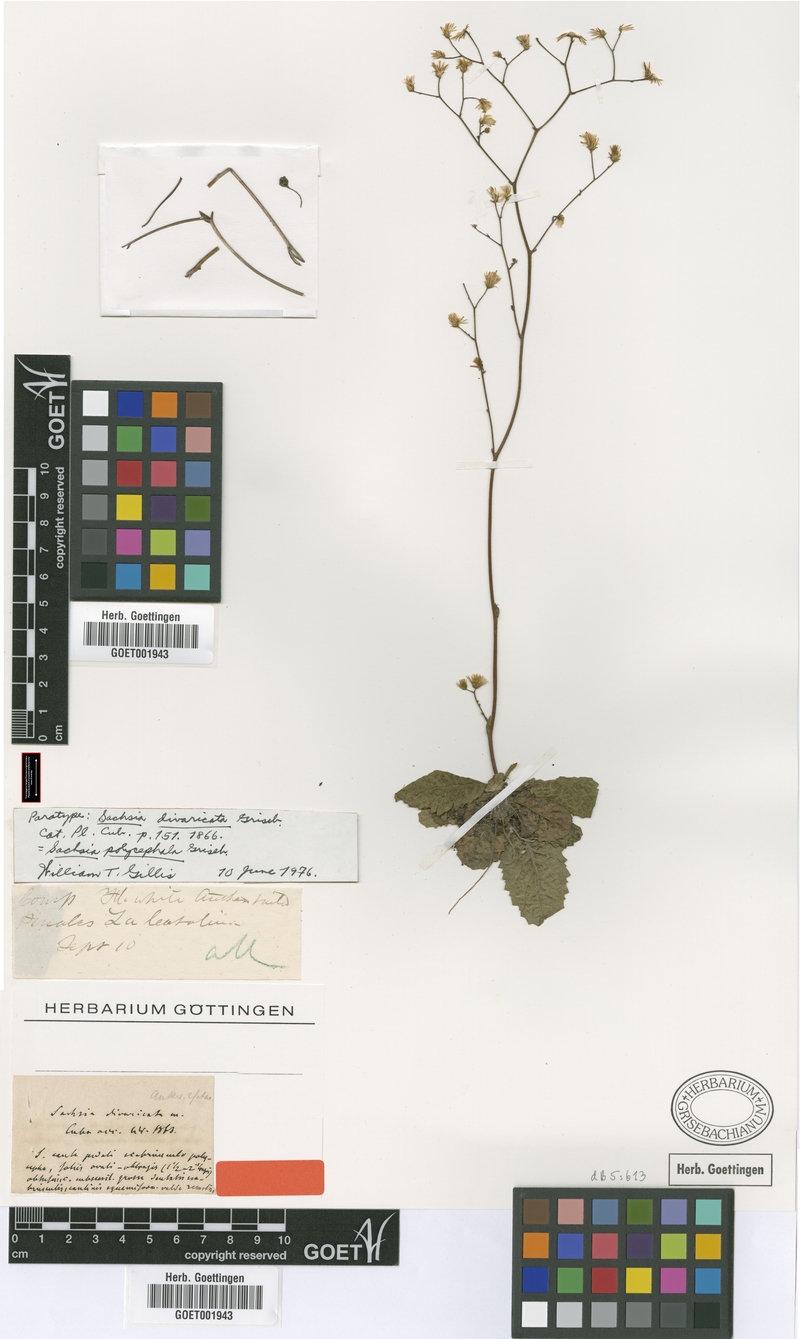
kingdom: Plantae
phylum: Tracheophyta
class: Magnoliopsida
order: Asterales
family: Asteraceae
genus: Sachsia
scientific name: Sachsia polycephala
